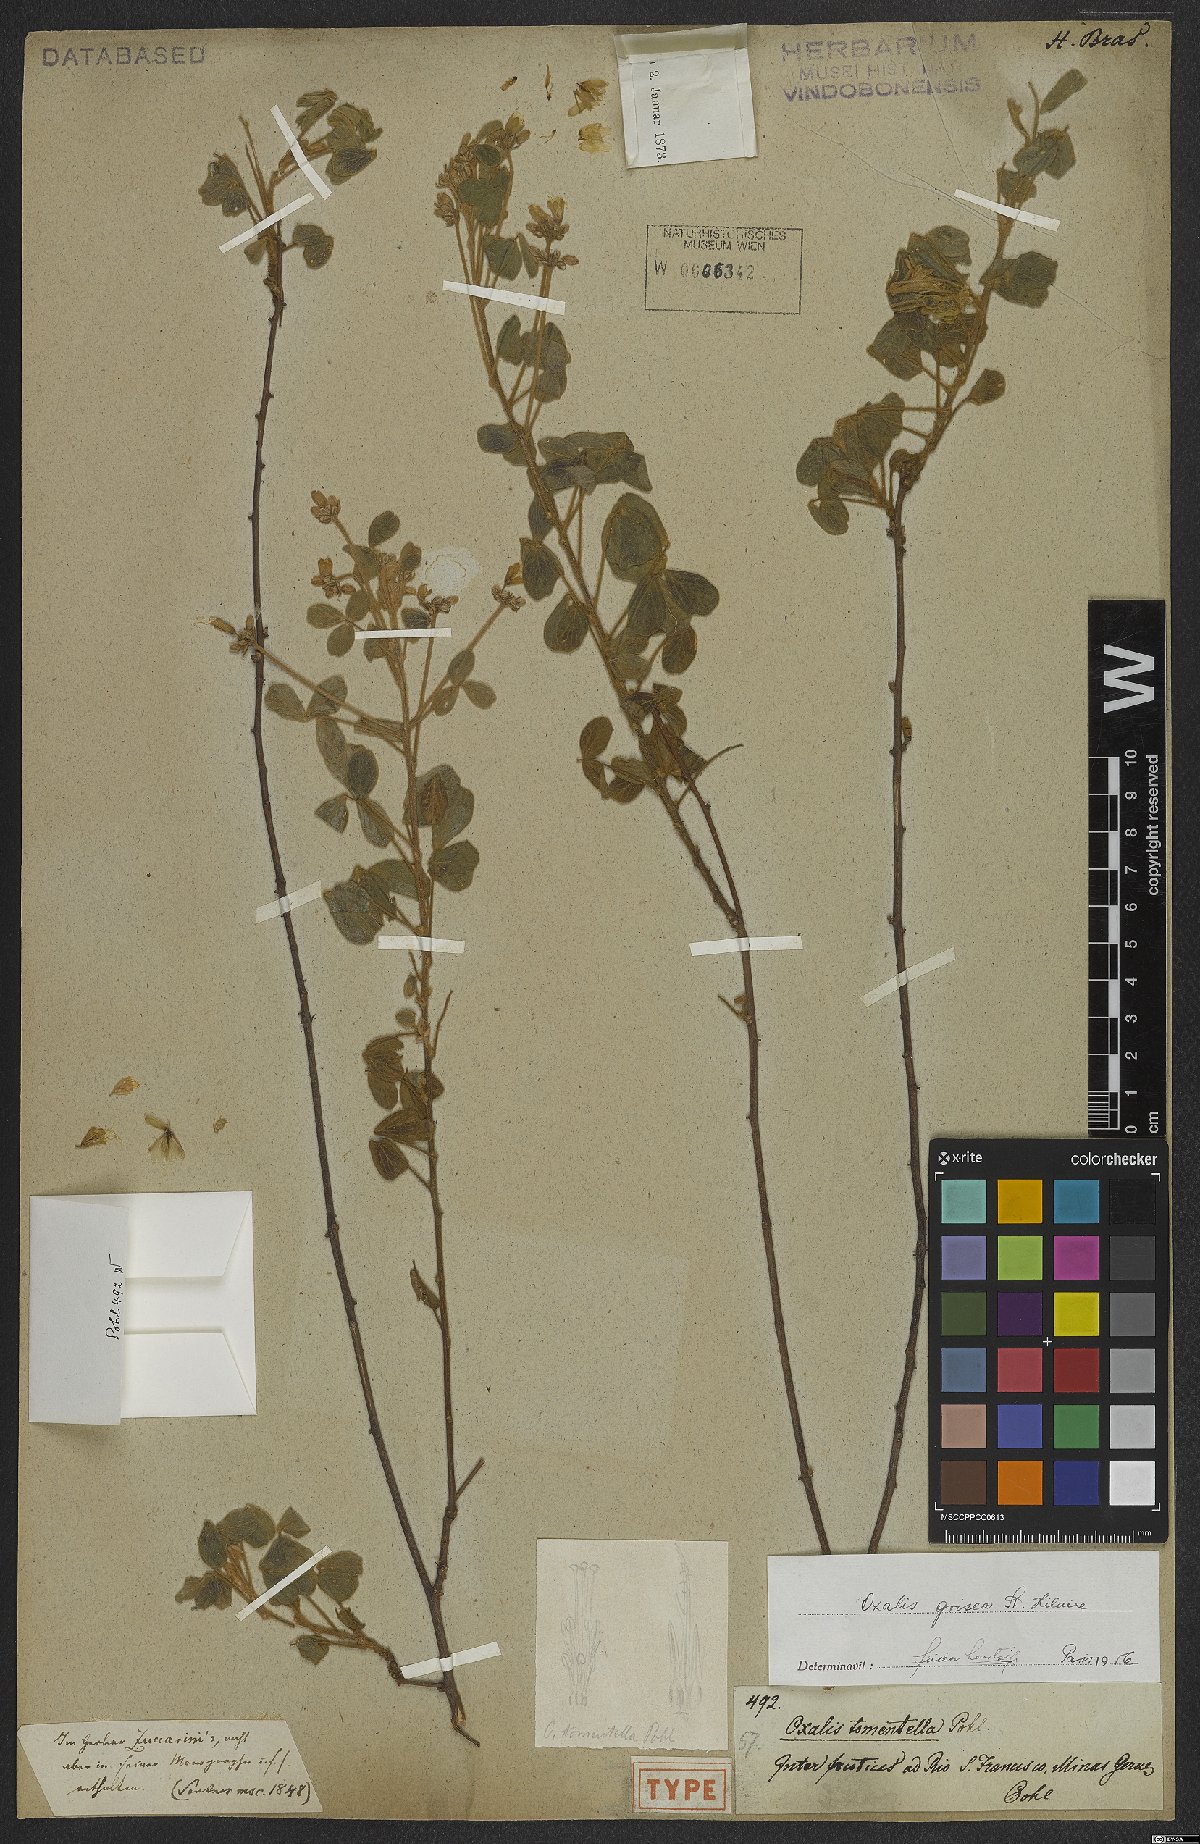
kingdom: Plantae
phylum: Tracheophyta
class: Magnoliopsida
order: Oxalidales
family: Oxalidaceae
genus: Oxalis
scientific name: Oxalis grisea
